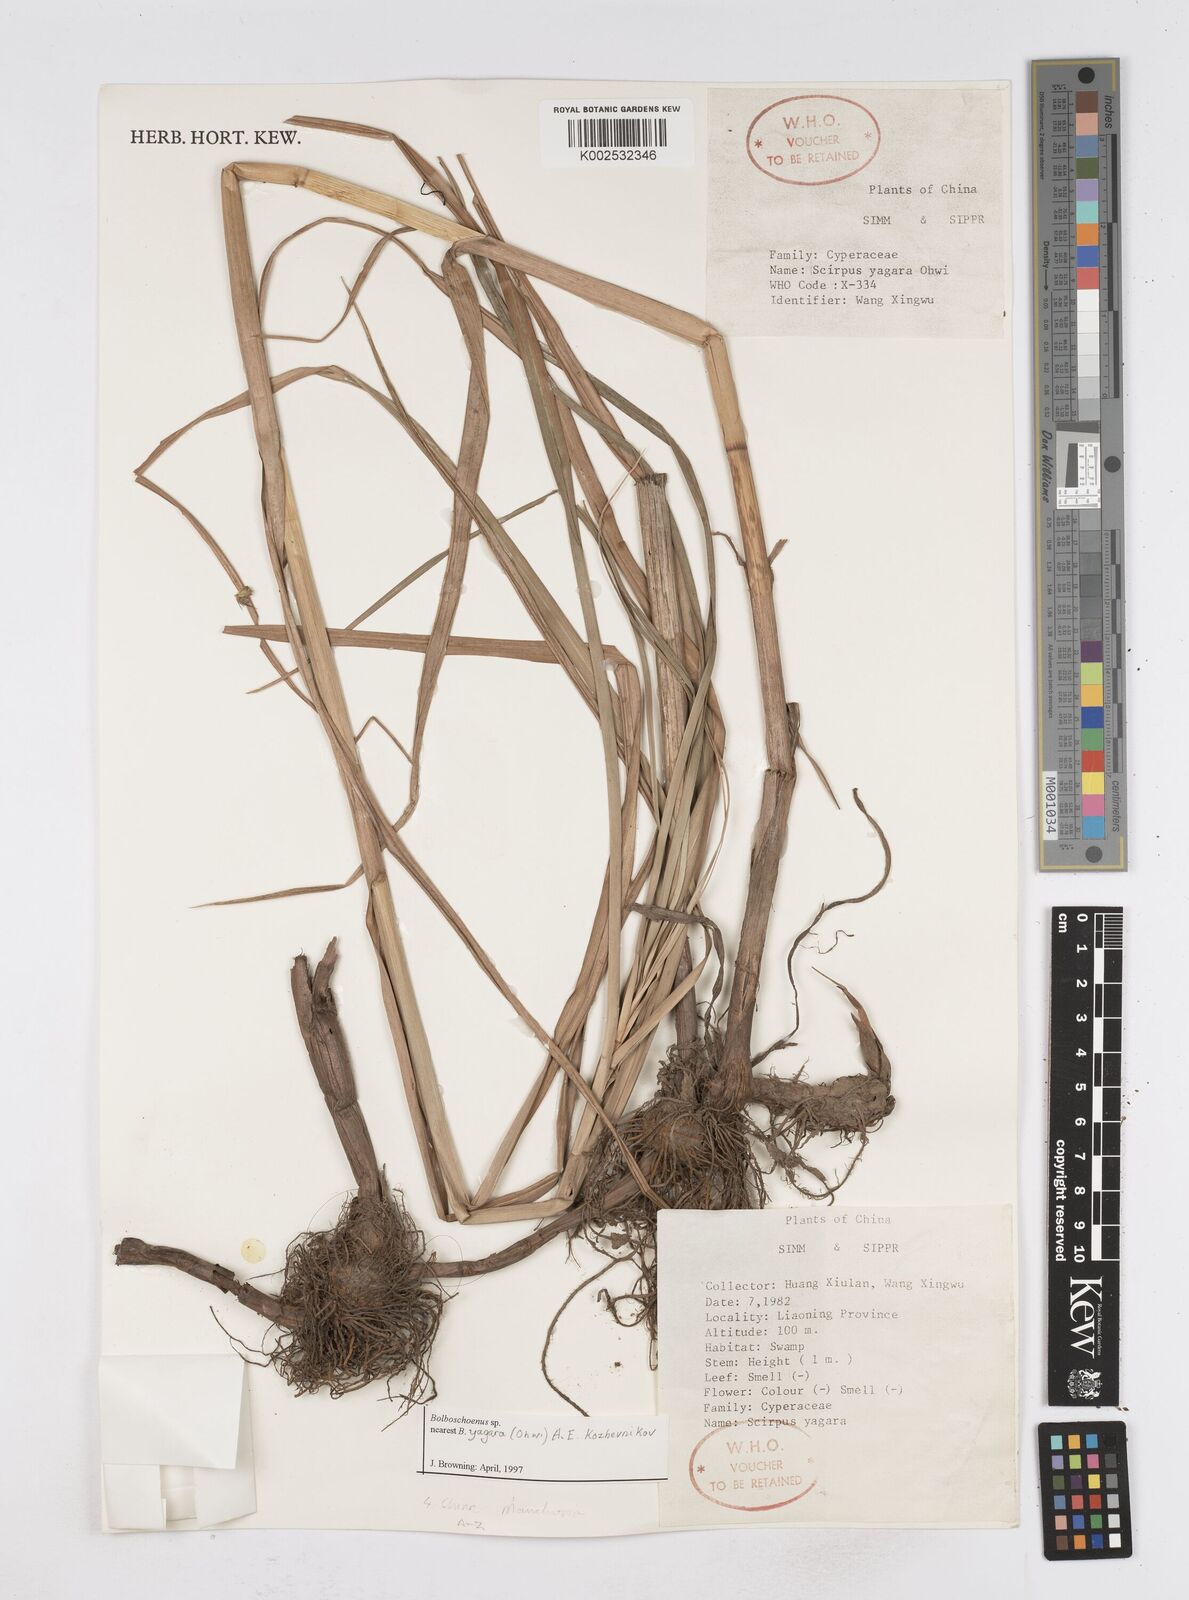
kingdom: Plantae
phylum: Tracheophyta
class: Liliopsida
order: Poales
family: Cyperaceae
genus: Bolboschoenus
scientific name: Bolboschoenus yagara
